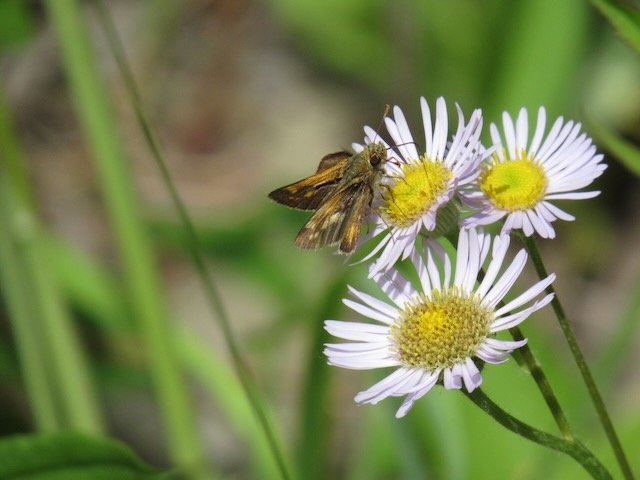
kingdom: Animalia
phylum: Arthropoda
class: Insecta
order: Lepidoptera
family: Hesperiidae
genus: Polites
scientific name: Polites coras
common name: Peck's Skipper
